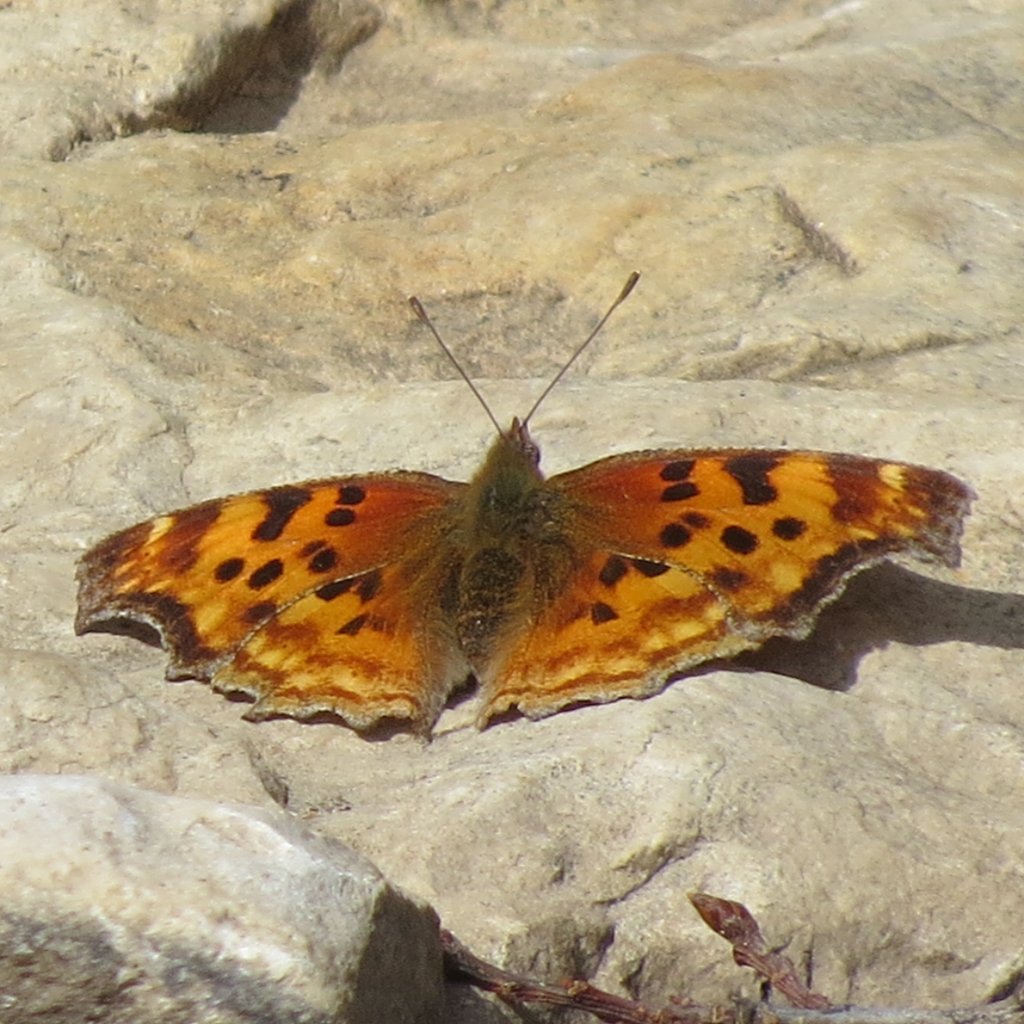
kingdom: Animalia
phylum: Arthropoda
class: Insecta
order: Lepidoptera
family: Nymphalidae
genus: Polygonia
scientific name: Polygonia satyrus
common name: Satyr Comma
